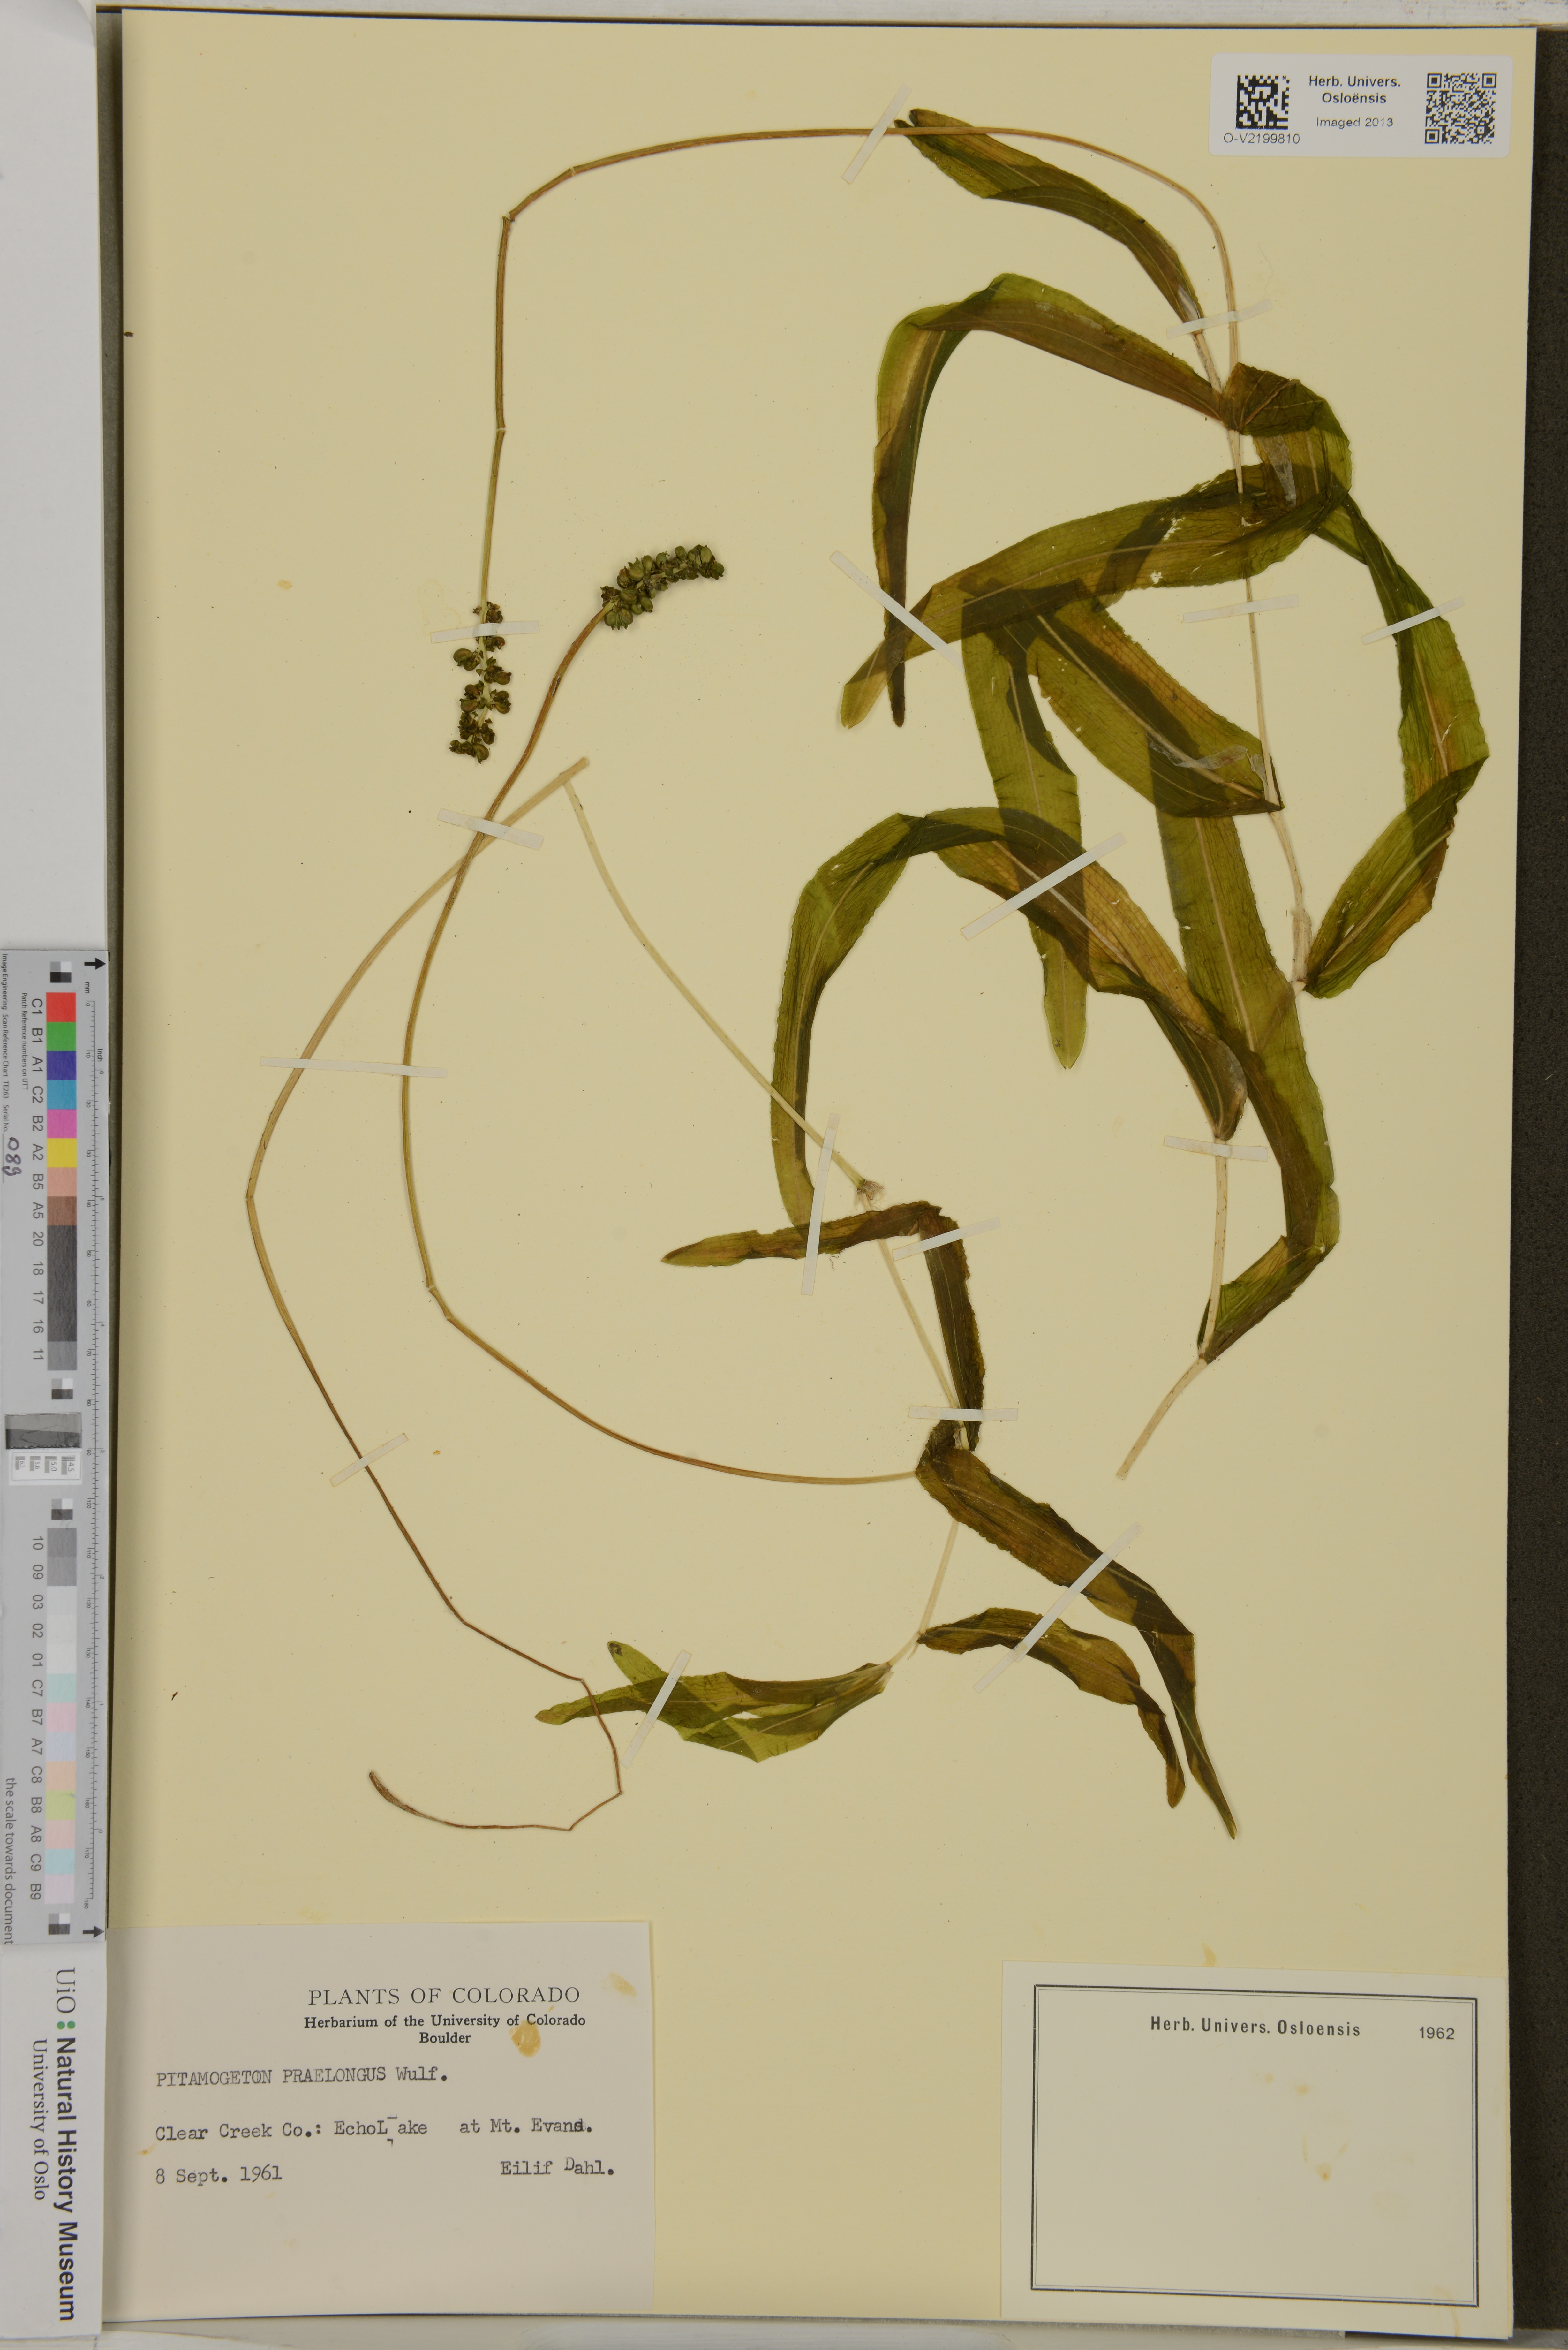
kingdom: Plantae
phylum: Tracheophyta
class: Liliopsida
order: Alismatales
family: Potamogetonaceae
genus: Potamogeton
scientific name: Potamogeton praelongus
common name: Long-stalked pondweed
